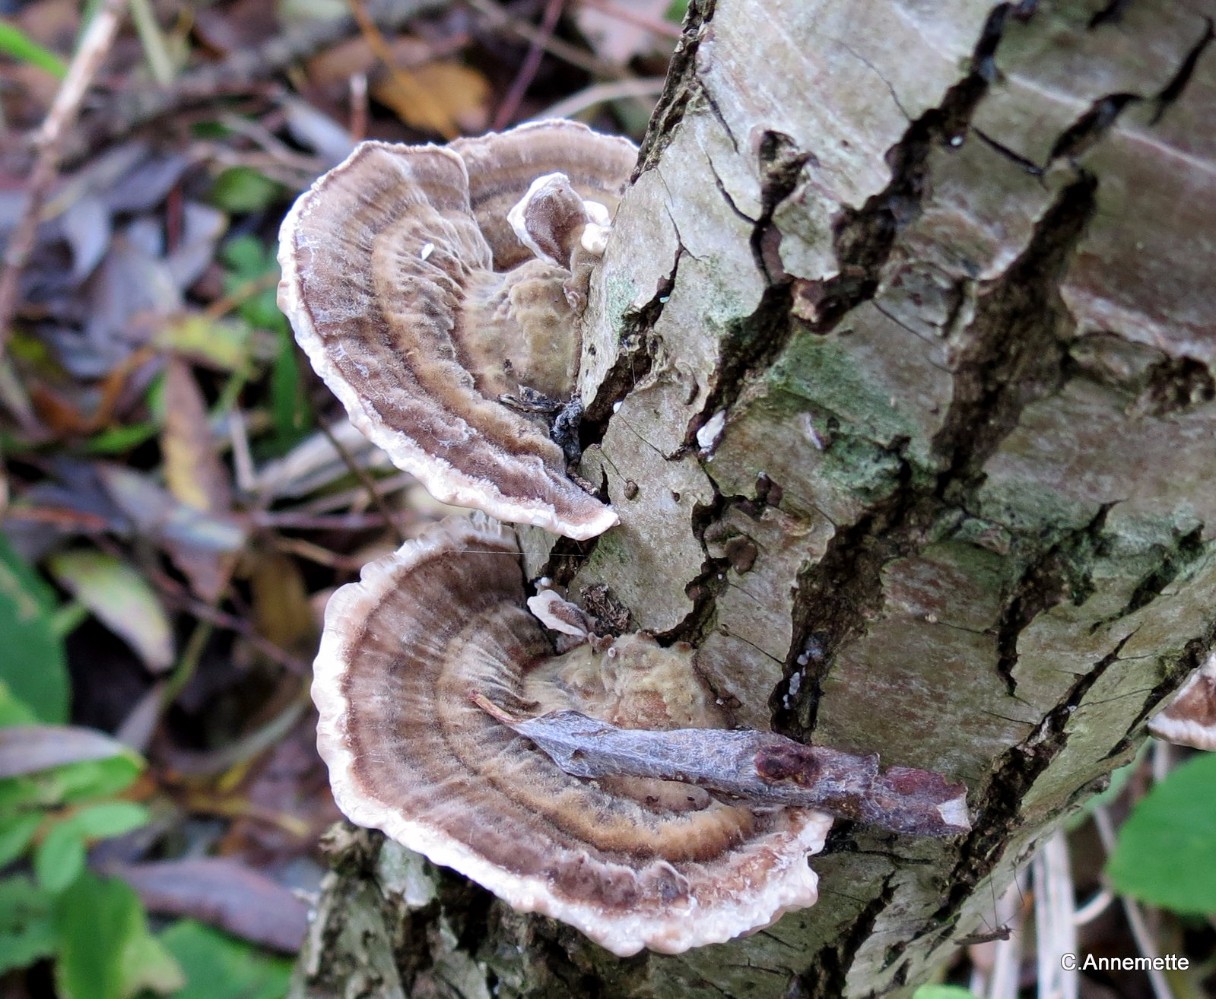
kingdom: Fungi
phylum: Basidiomycota
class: Agaricomycetes
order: Polyporales
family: Polyporaceae
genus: Trametes
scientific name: Trametes versicolor
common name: broget læderporesvamp
